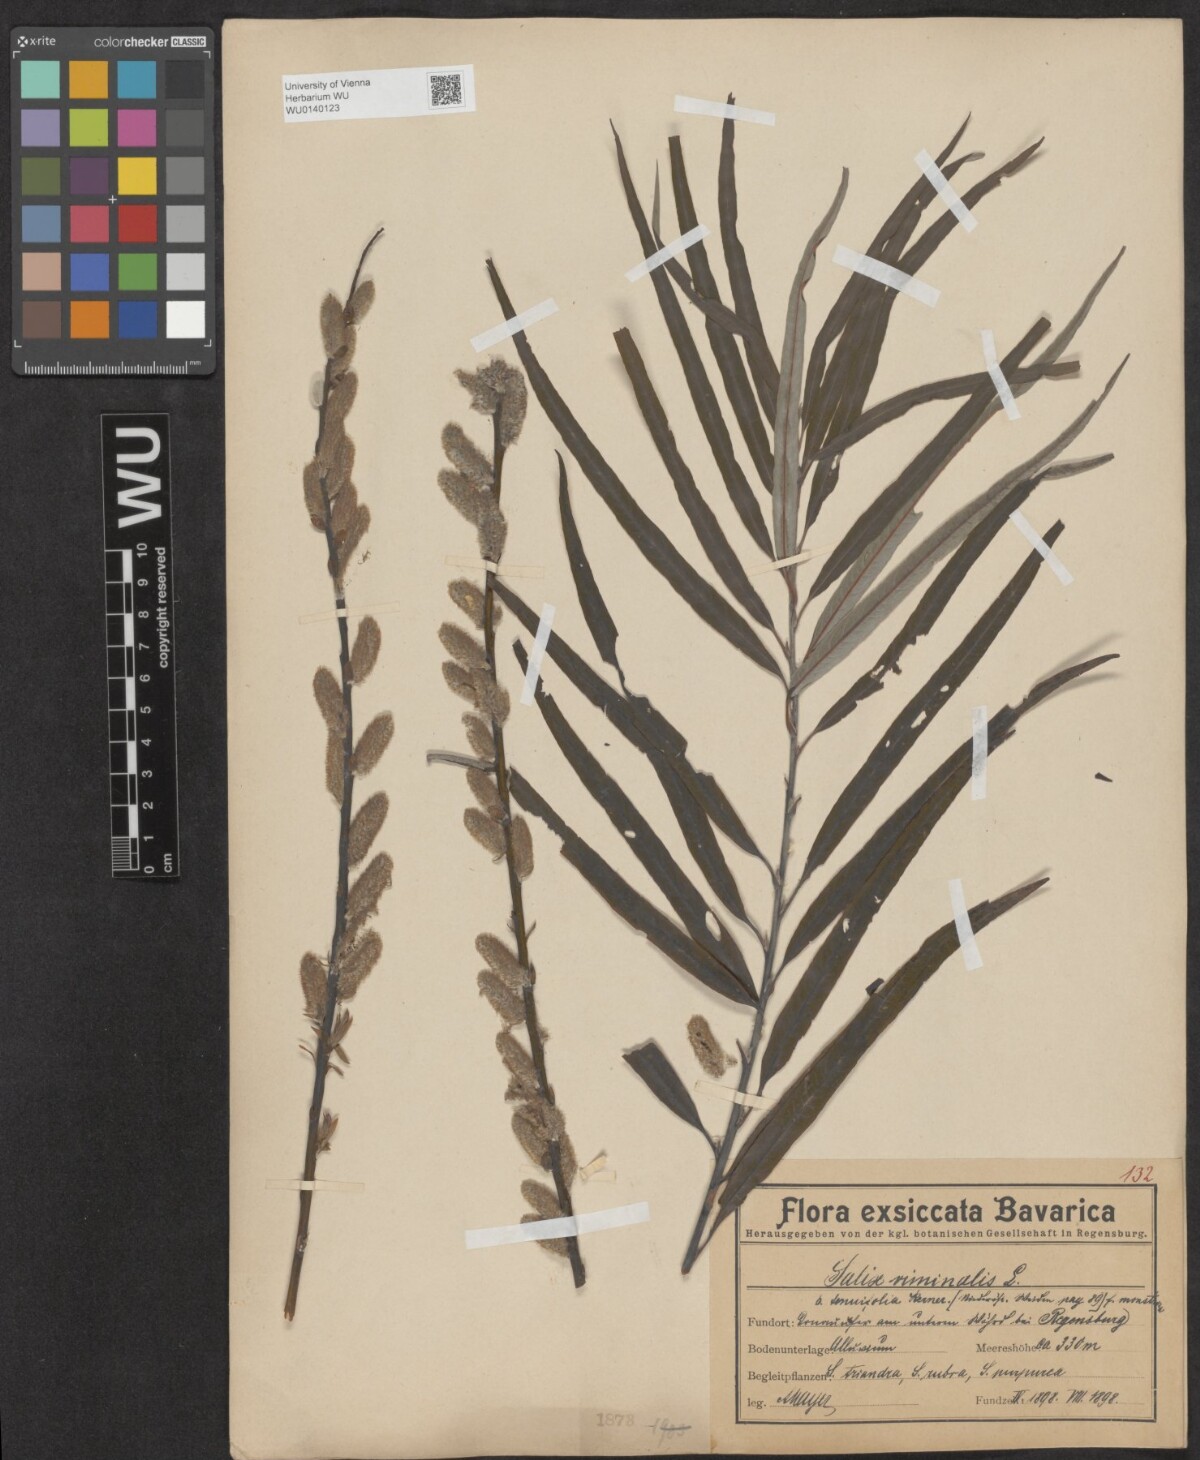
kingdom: Plantae
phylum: Tracheophyta
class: Magnoliopsida
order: Malpighiales
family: Salicaceae
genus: Salix
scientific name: Salix viminalis
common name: Osier
